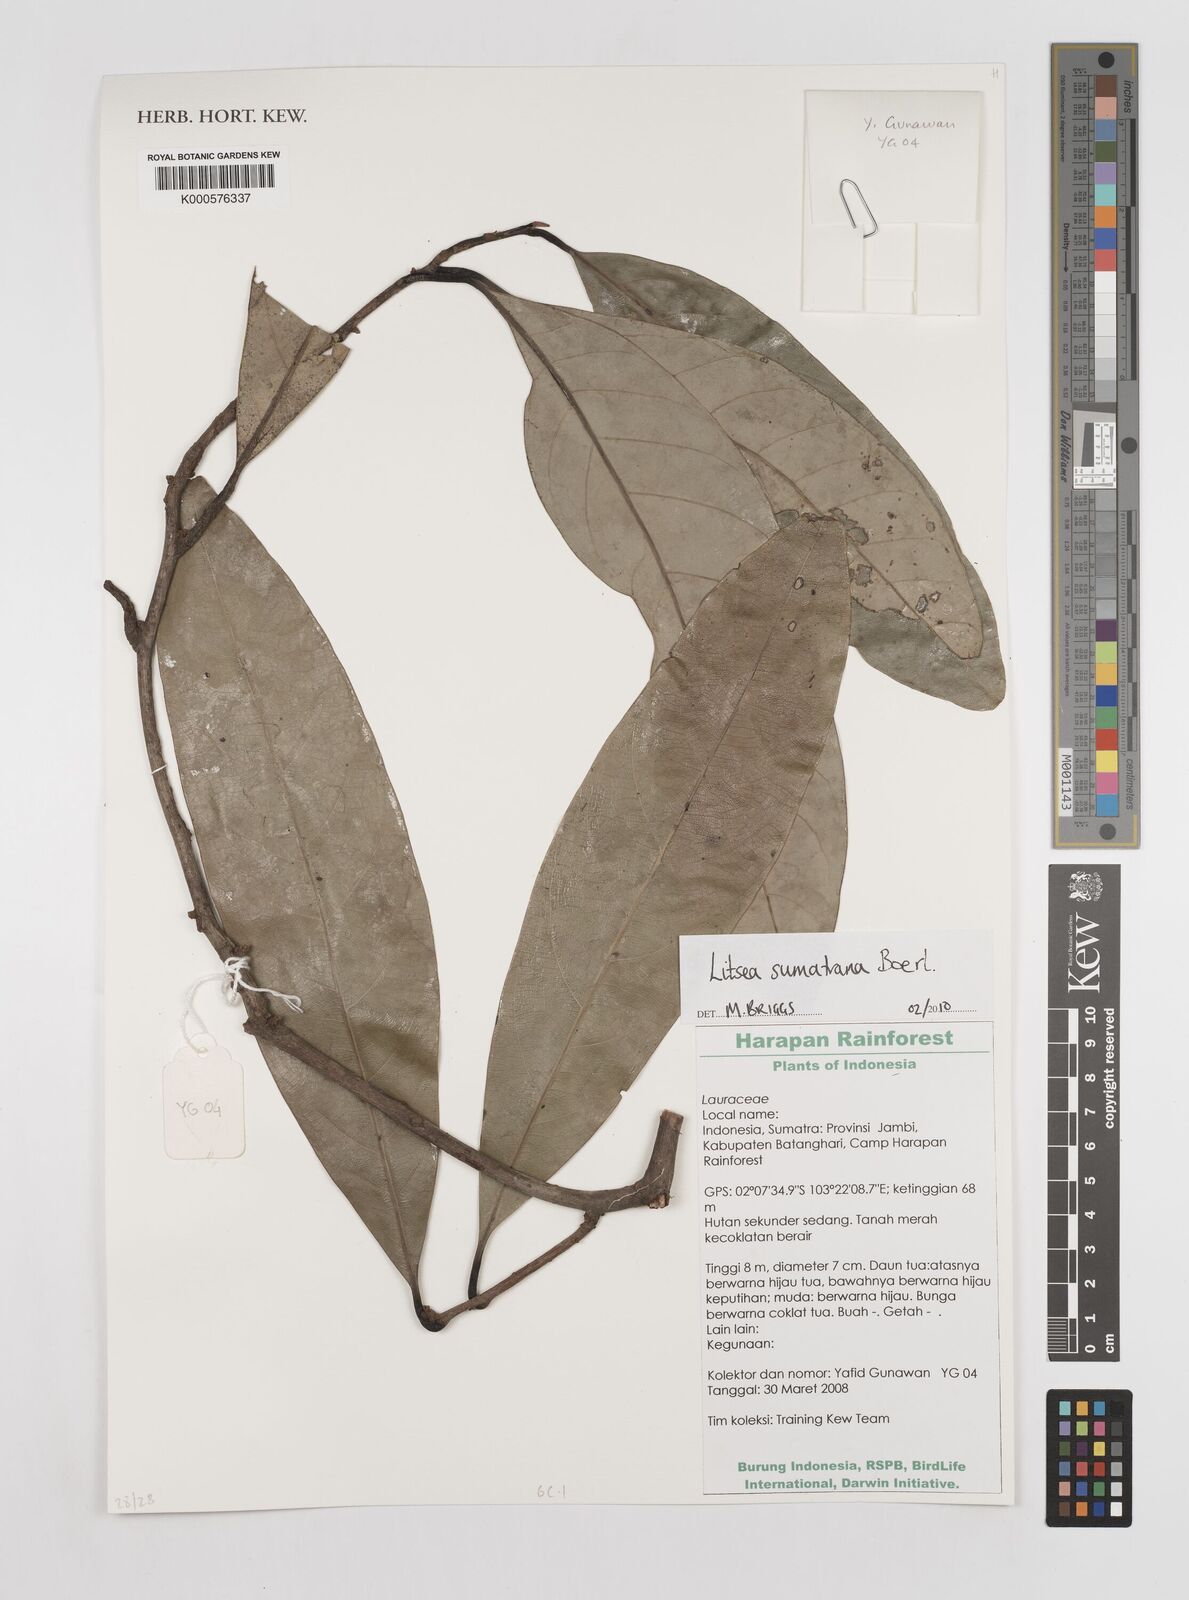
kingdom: Plantae
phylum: Tracheophyta
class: Magnoliopsida
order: Laurales
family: Lauraceae
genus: Litsea
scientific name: Litsea sumatrana
